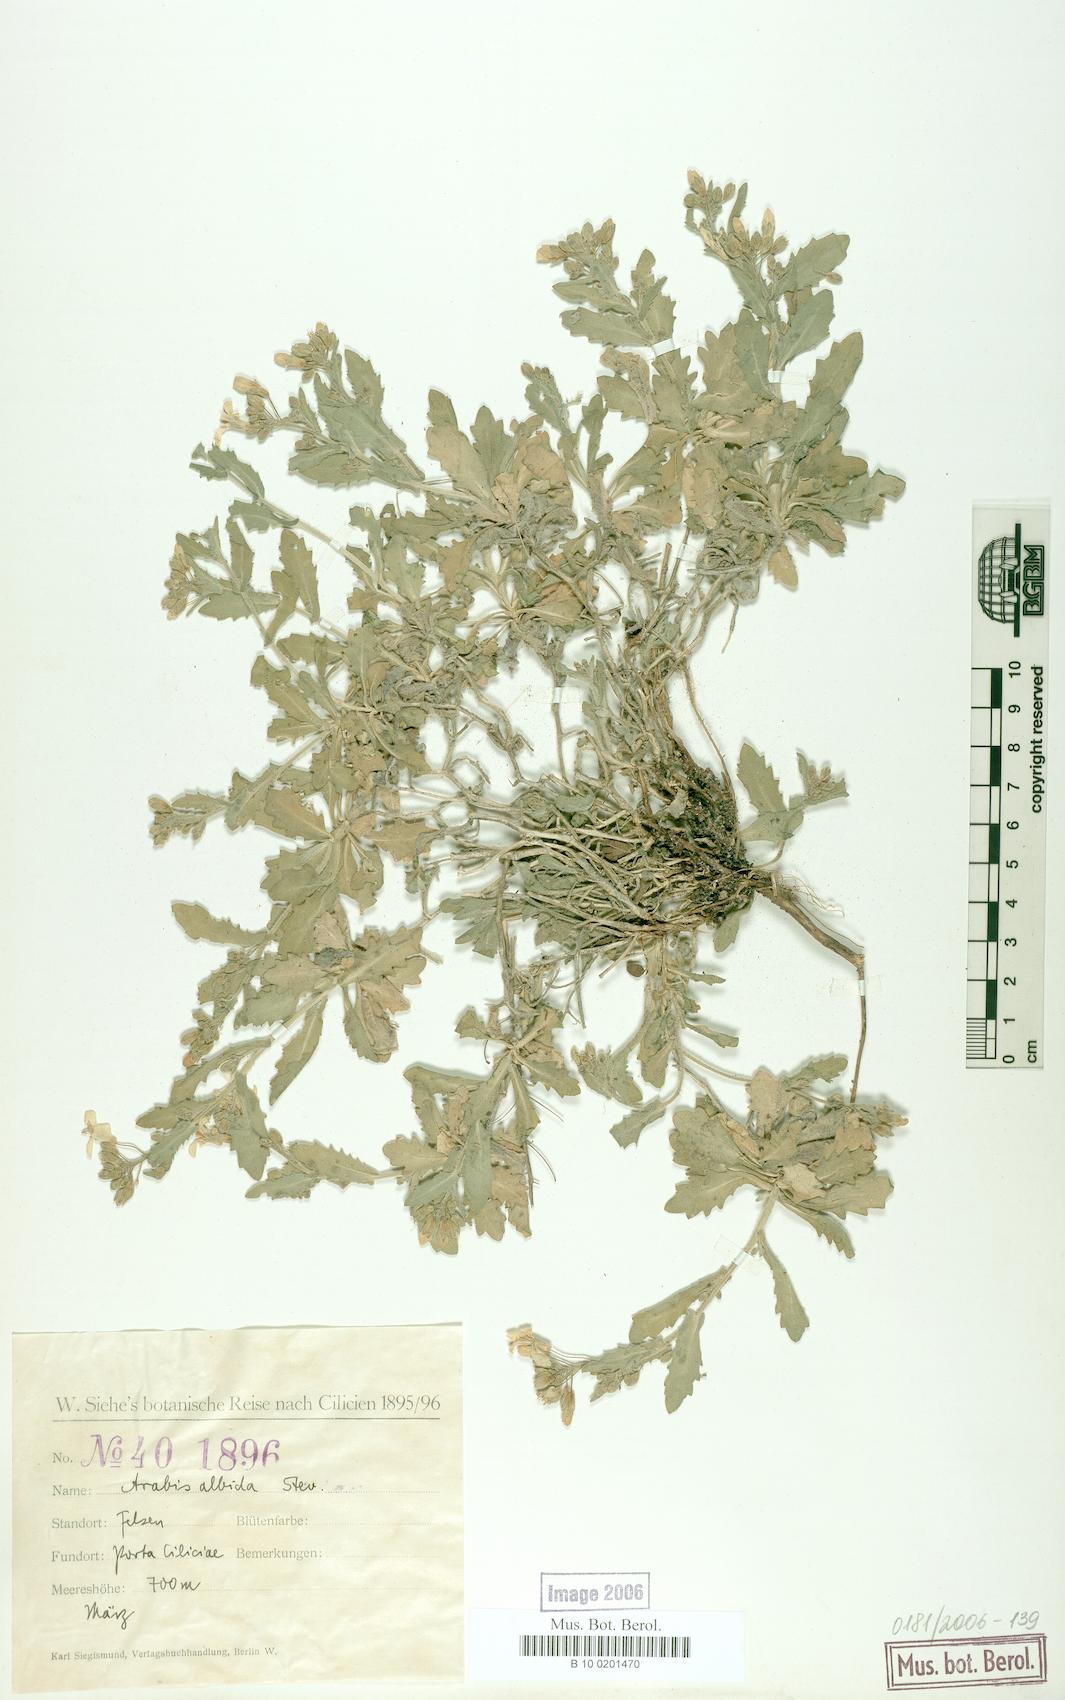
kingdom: Plantae
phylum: Tracheophyta
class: Magnoliopsida
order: Brassicales
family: Brassicaceae
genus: Arabis
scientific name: Arabis alpina
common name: Alpine rock-cress
